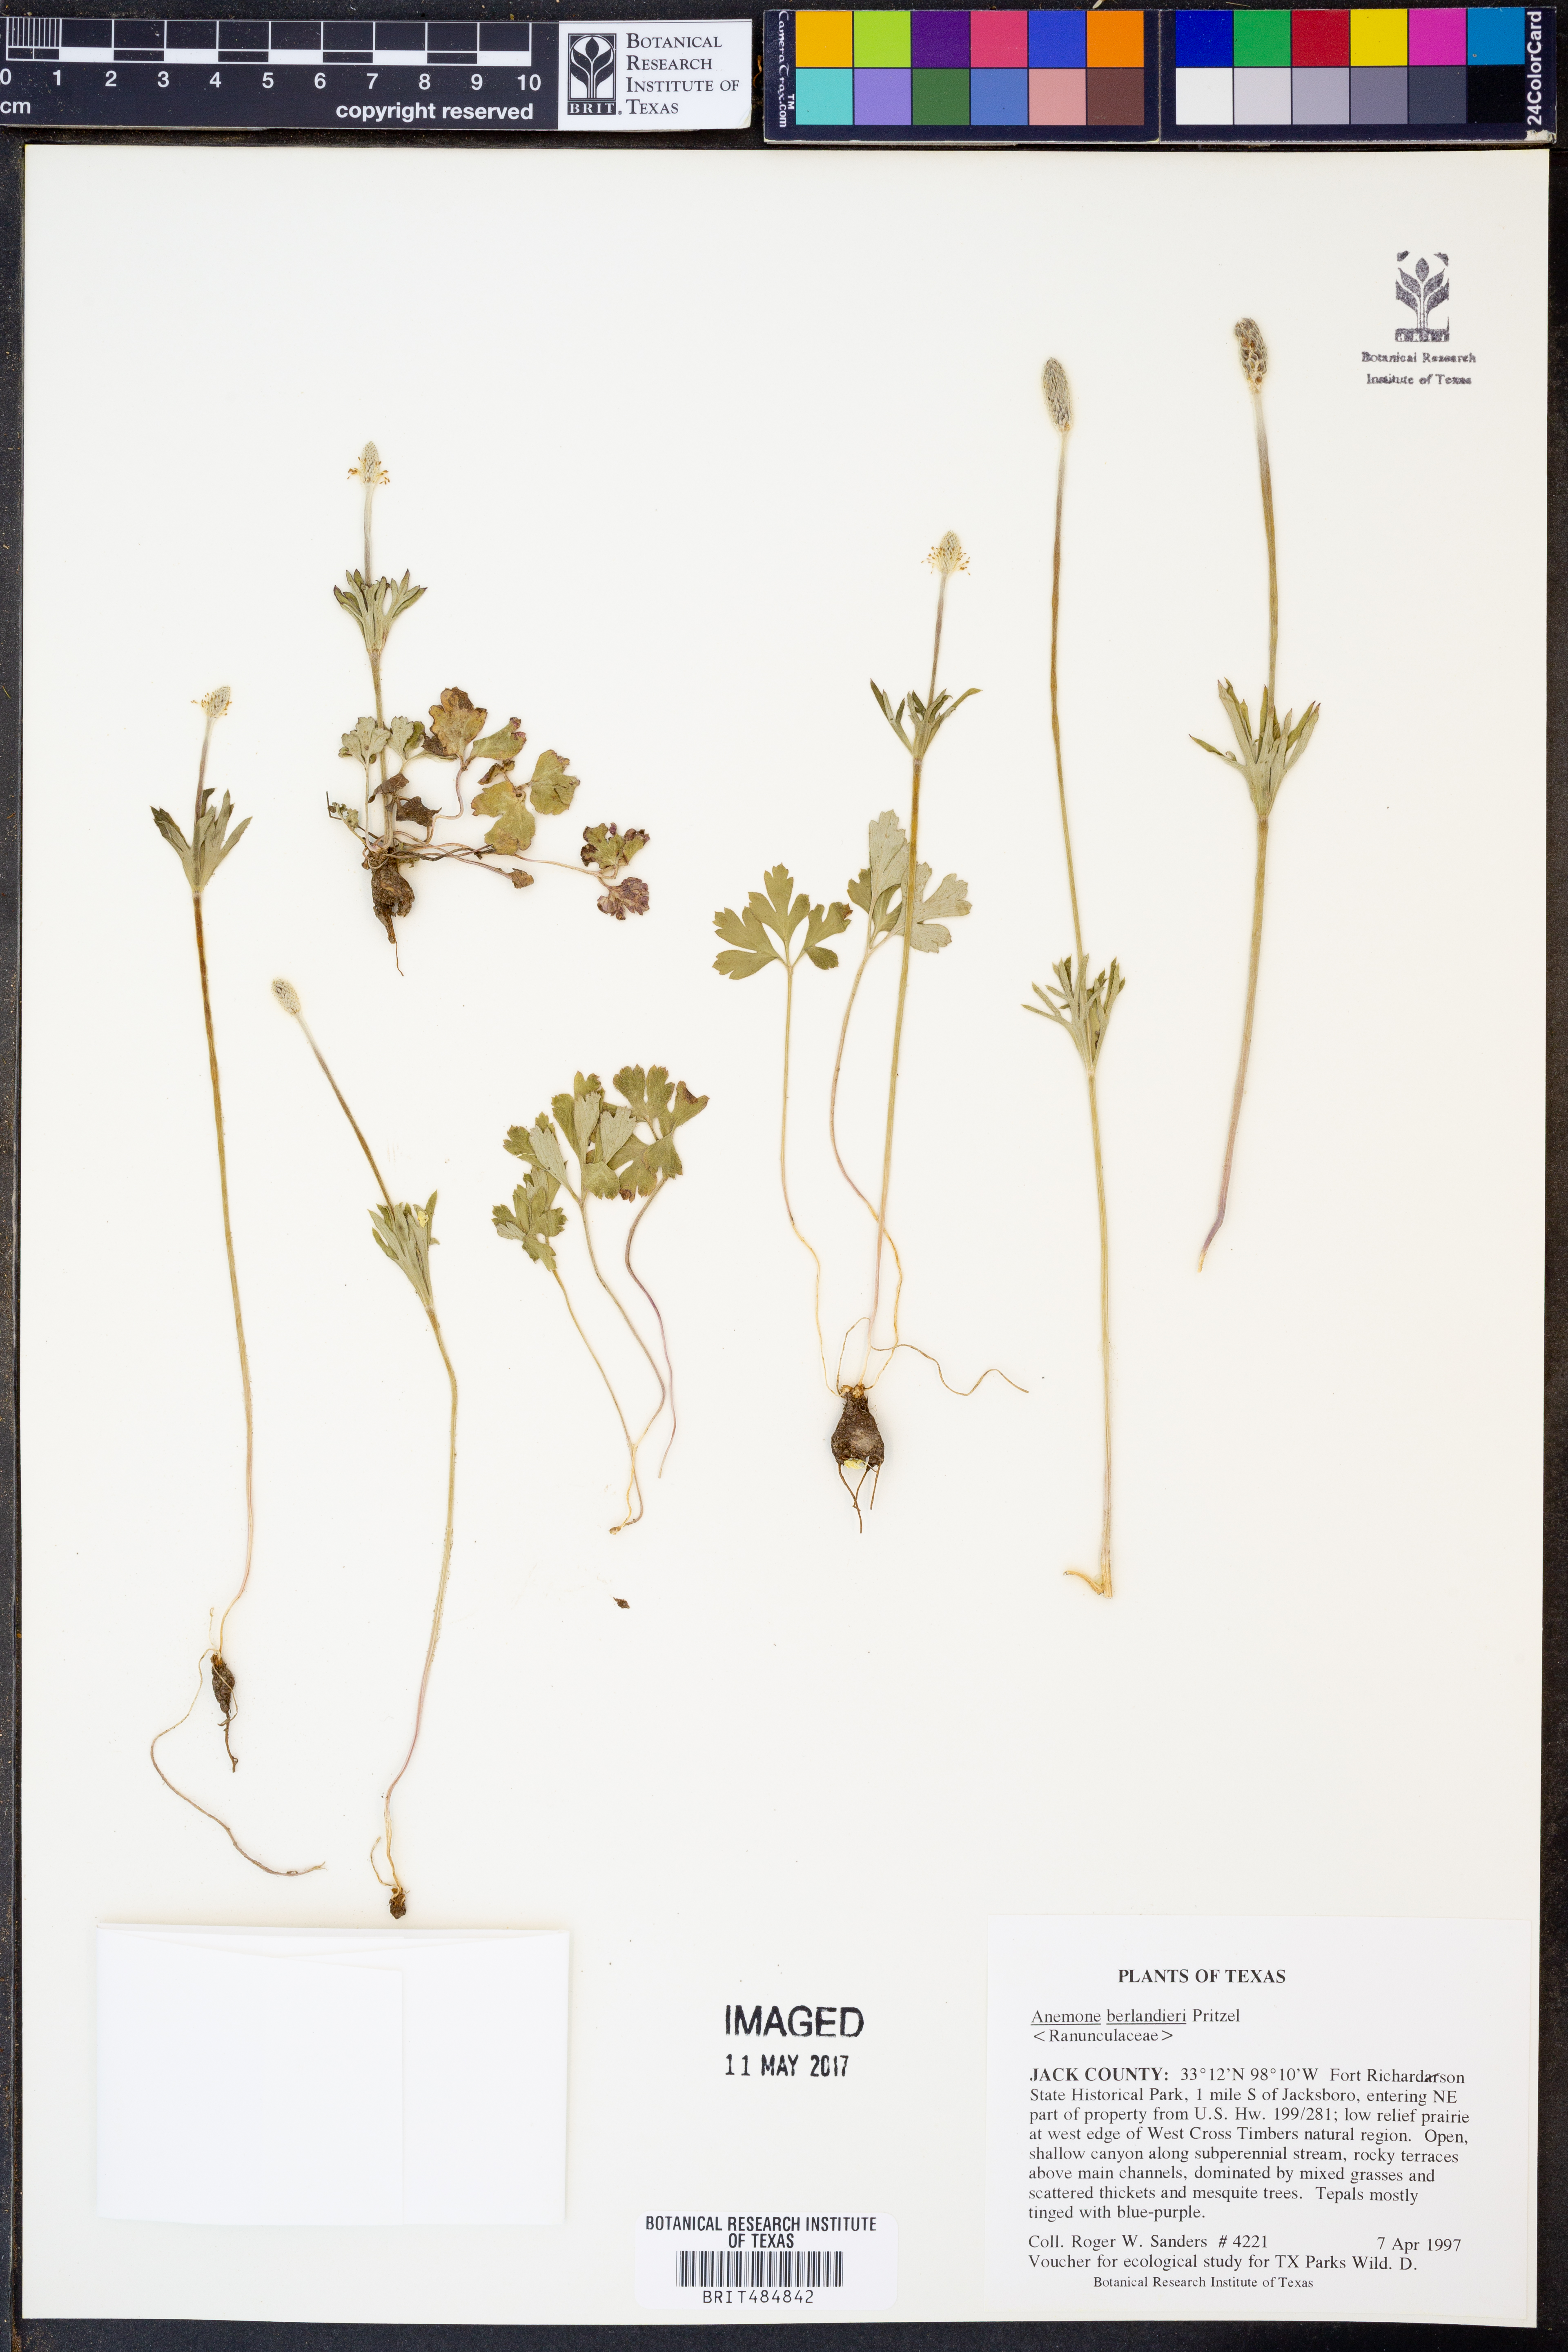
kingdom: Plantae
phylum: Tracheophyta
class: Magnoliopsida
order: Ranunculales
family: Ranunculaceae
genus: Anemone
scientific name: Anemone berlandieri
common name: Ten-petal anemone
